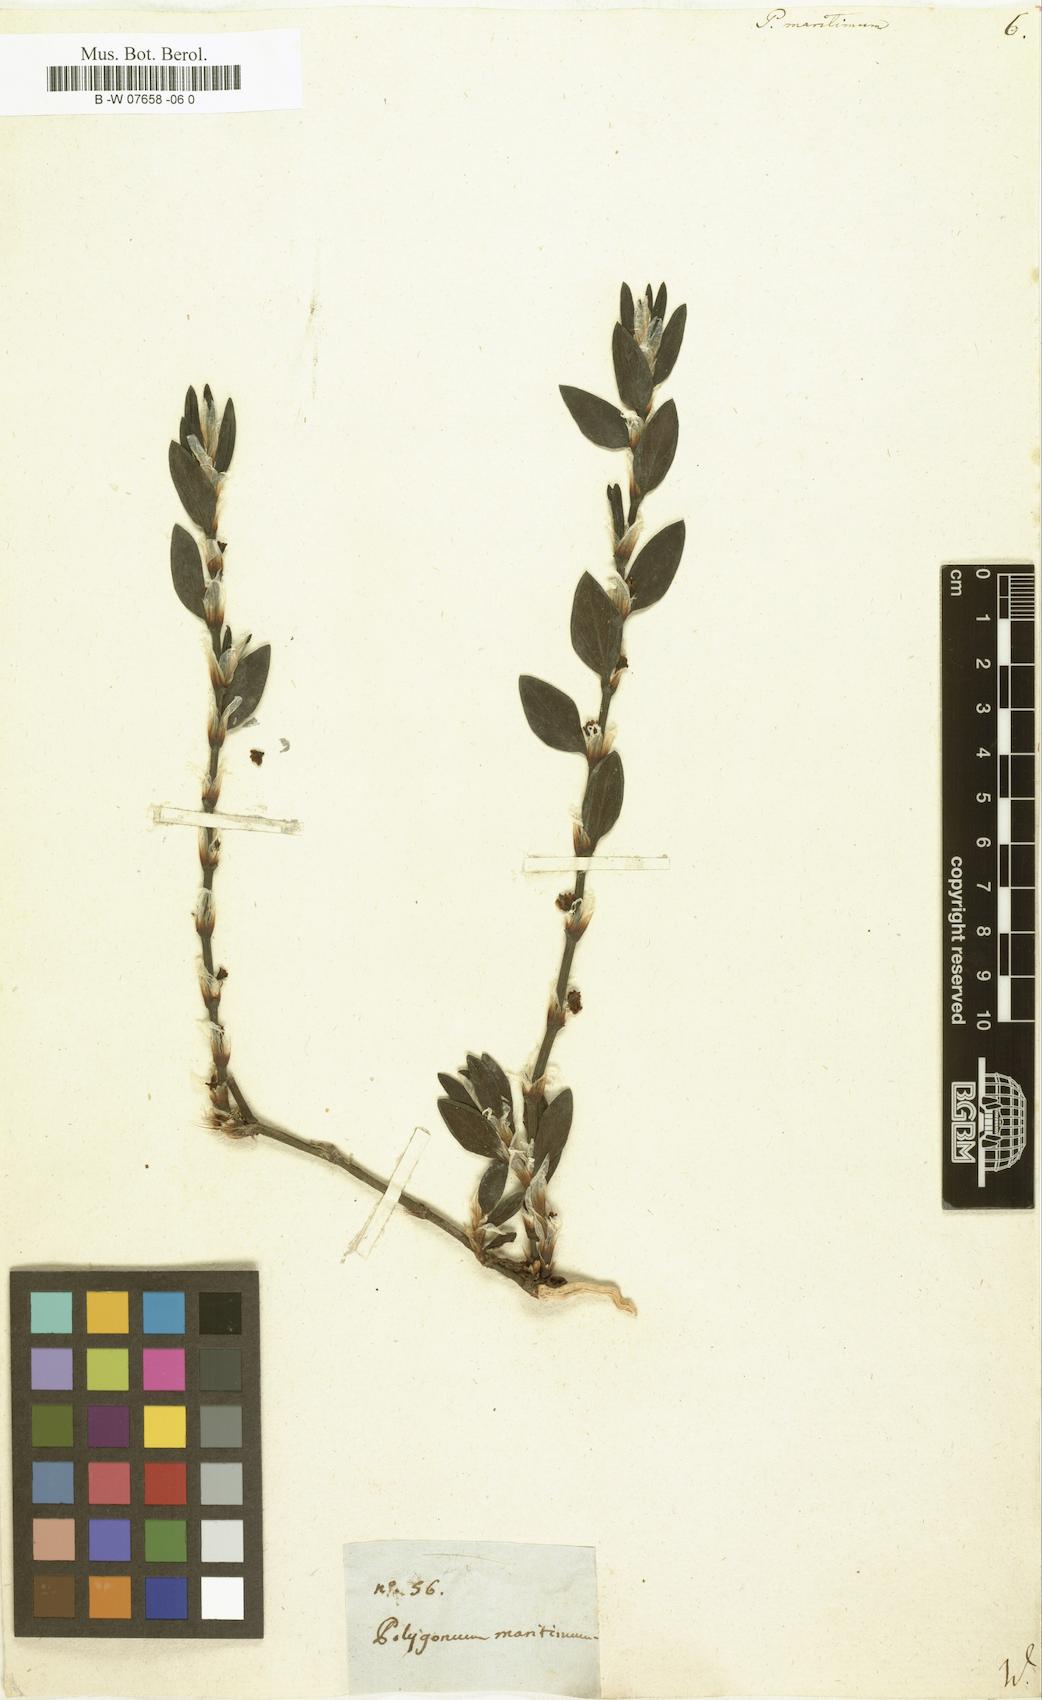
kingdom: Plantae
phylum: Tracheophyta
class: Magnoliopsida
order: Caryophyllales
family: Polygonaceae
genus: Polygonum
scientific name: Polygonum maritimum
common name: Sea knotgrass
